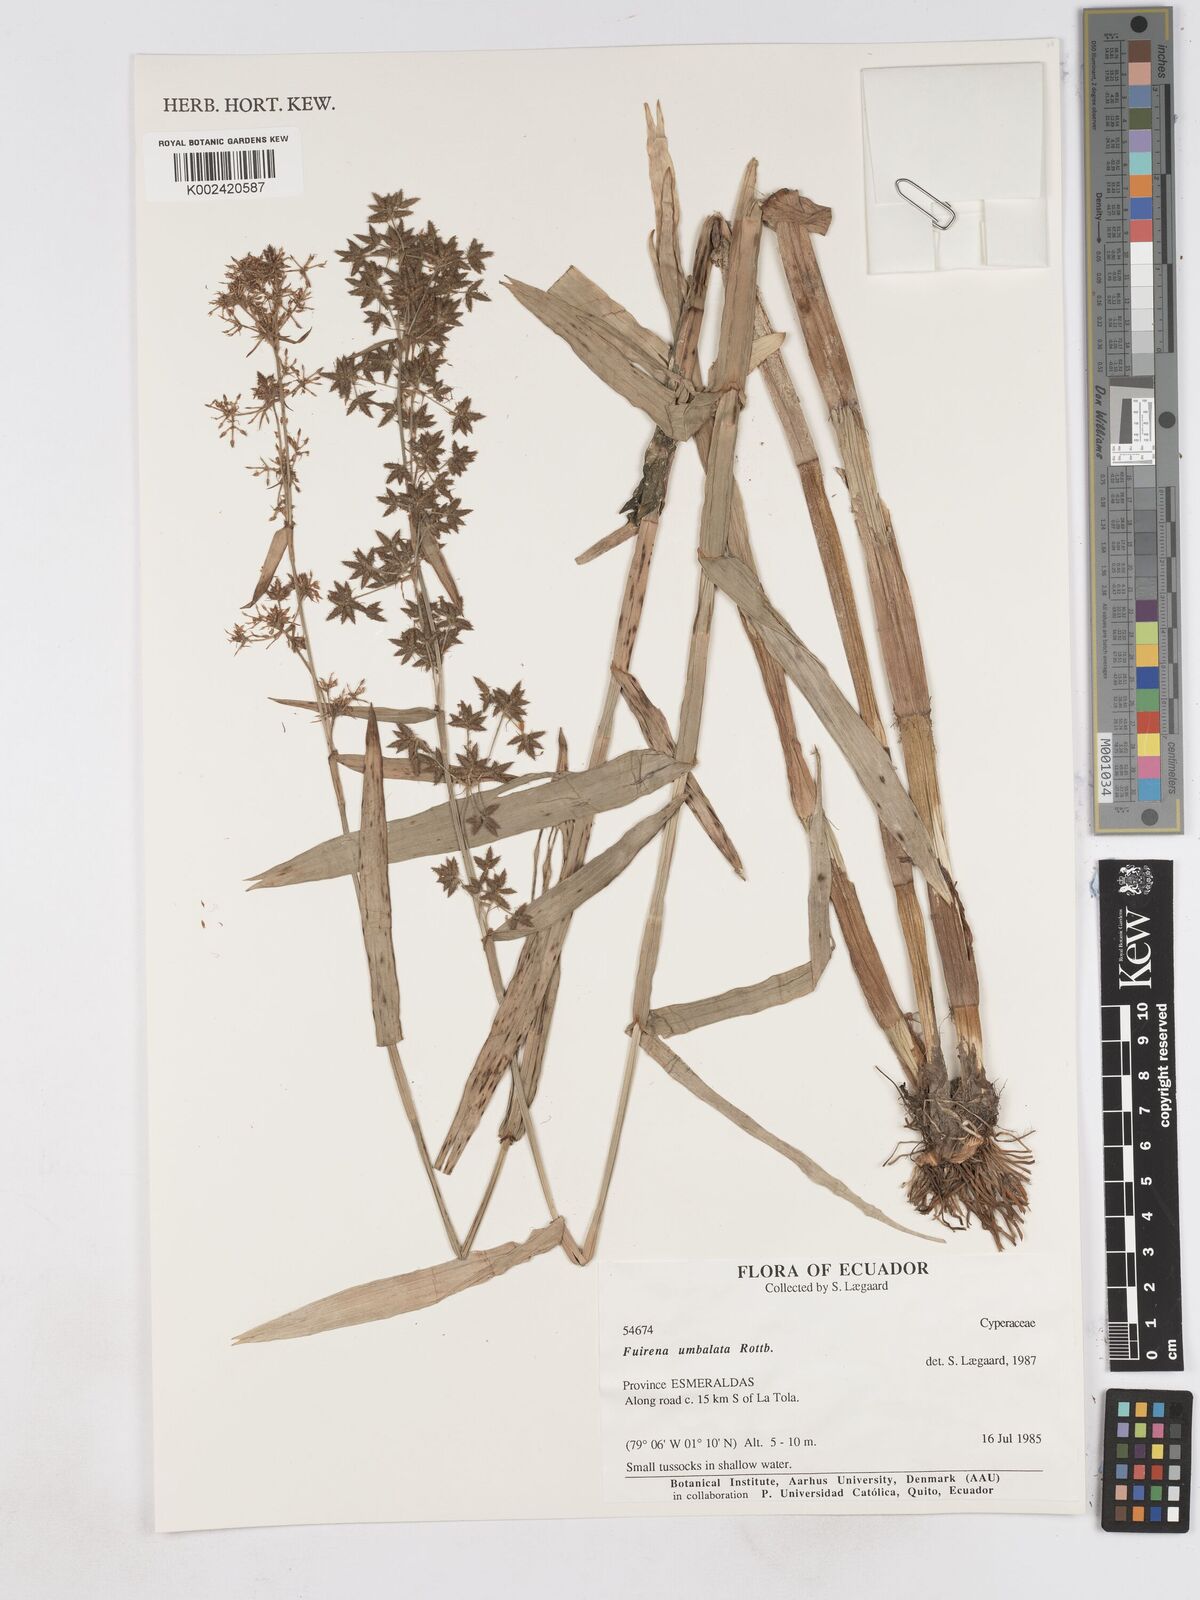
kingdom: Plantae
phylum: Tracheophyta
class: Liliopsida
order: Poales
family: Cyperaceae
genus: Fuirena
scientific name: Fuirena umbellata
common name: Yefen
